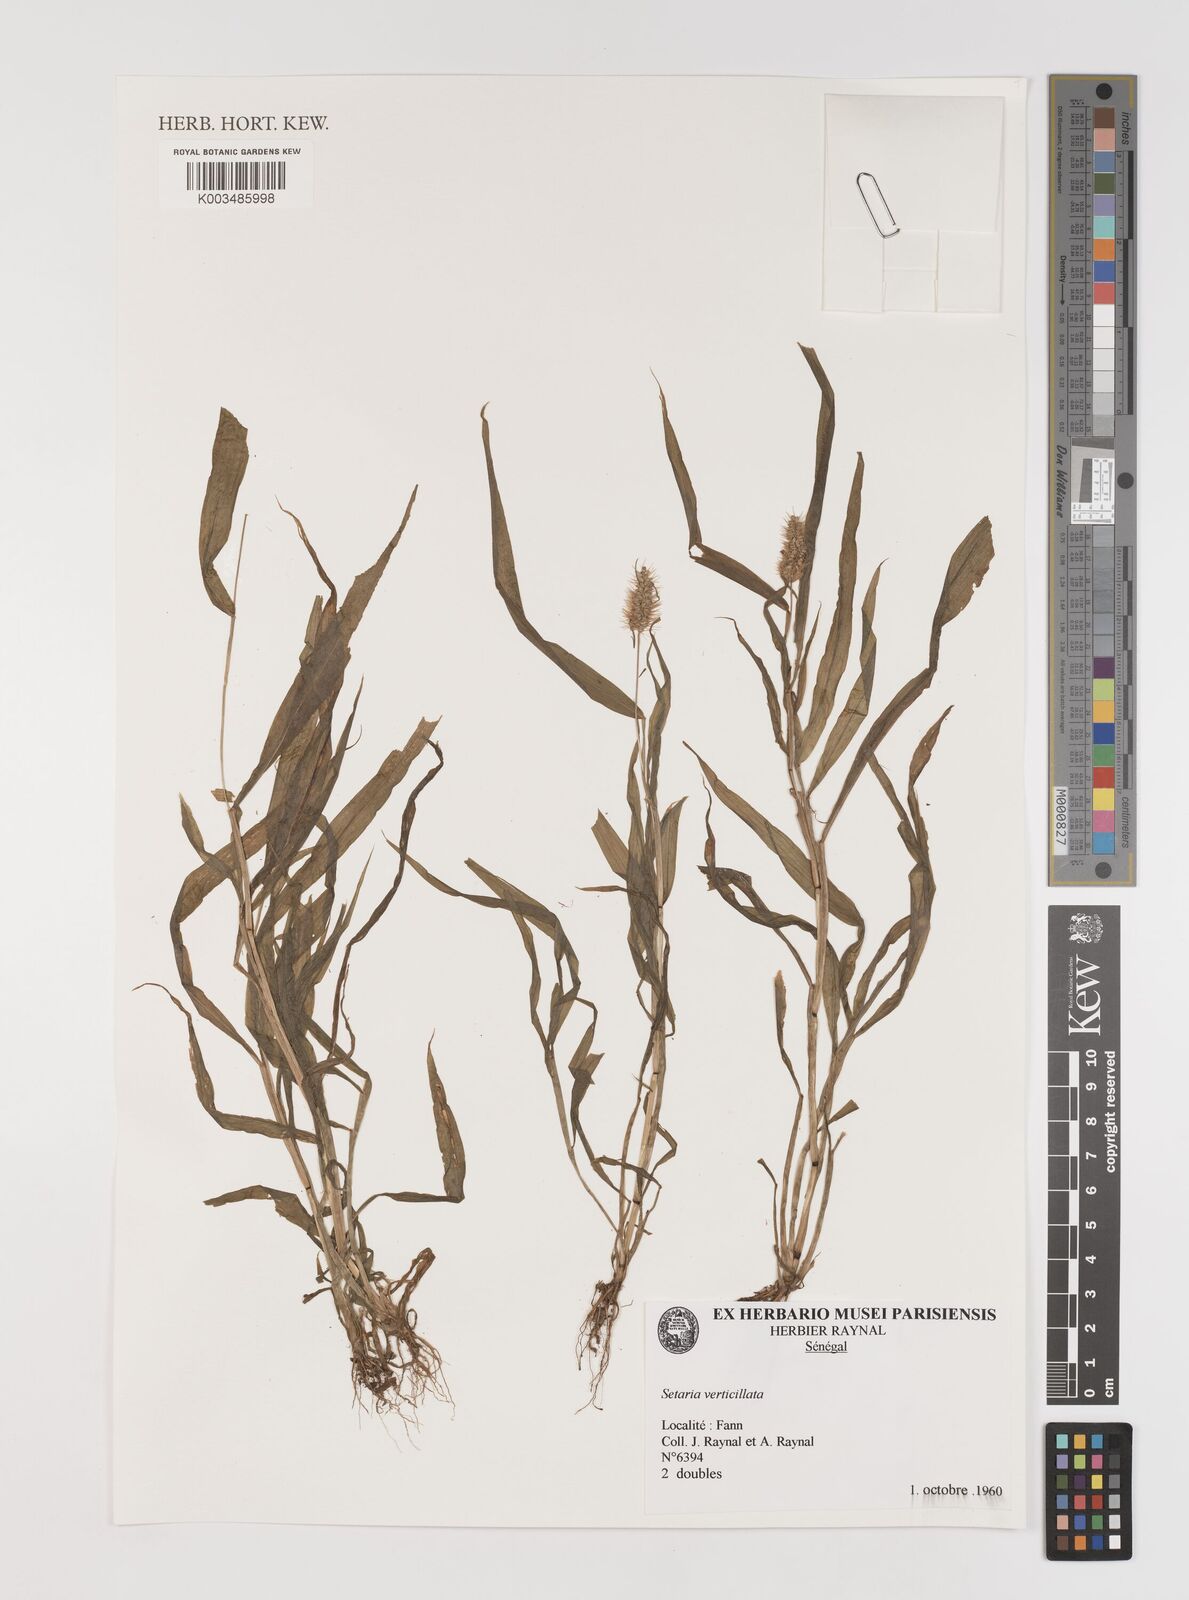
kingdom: Plantae
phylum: Tracheophyta
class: Liliopsida
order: Poales
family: Poaceae
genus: Setaria
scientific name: Setaria verticillata
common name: Hooked bristlegrass
